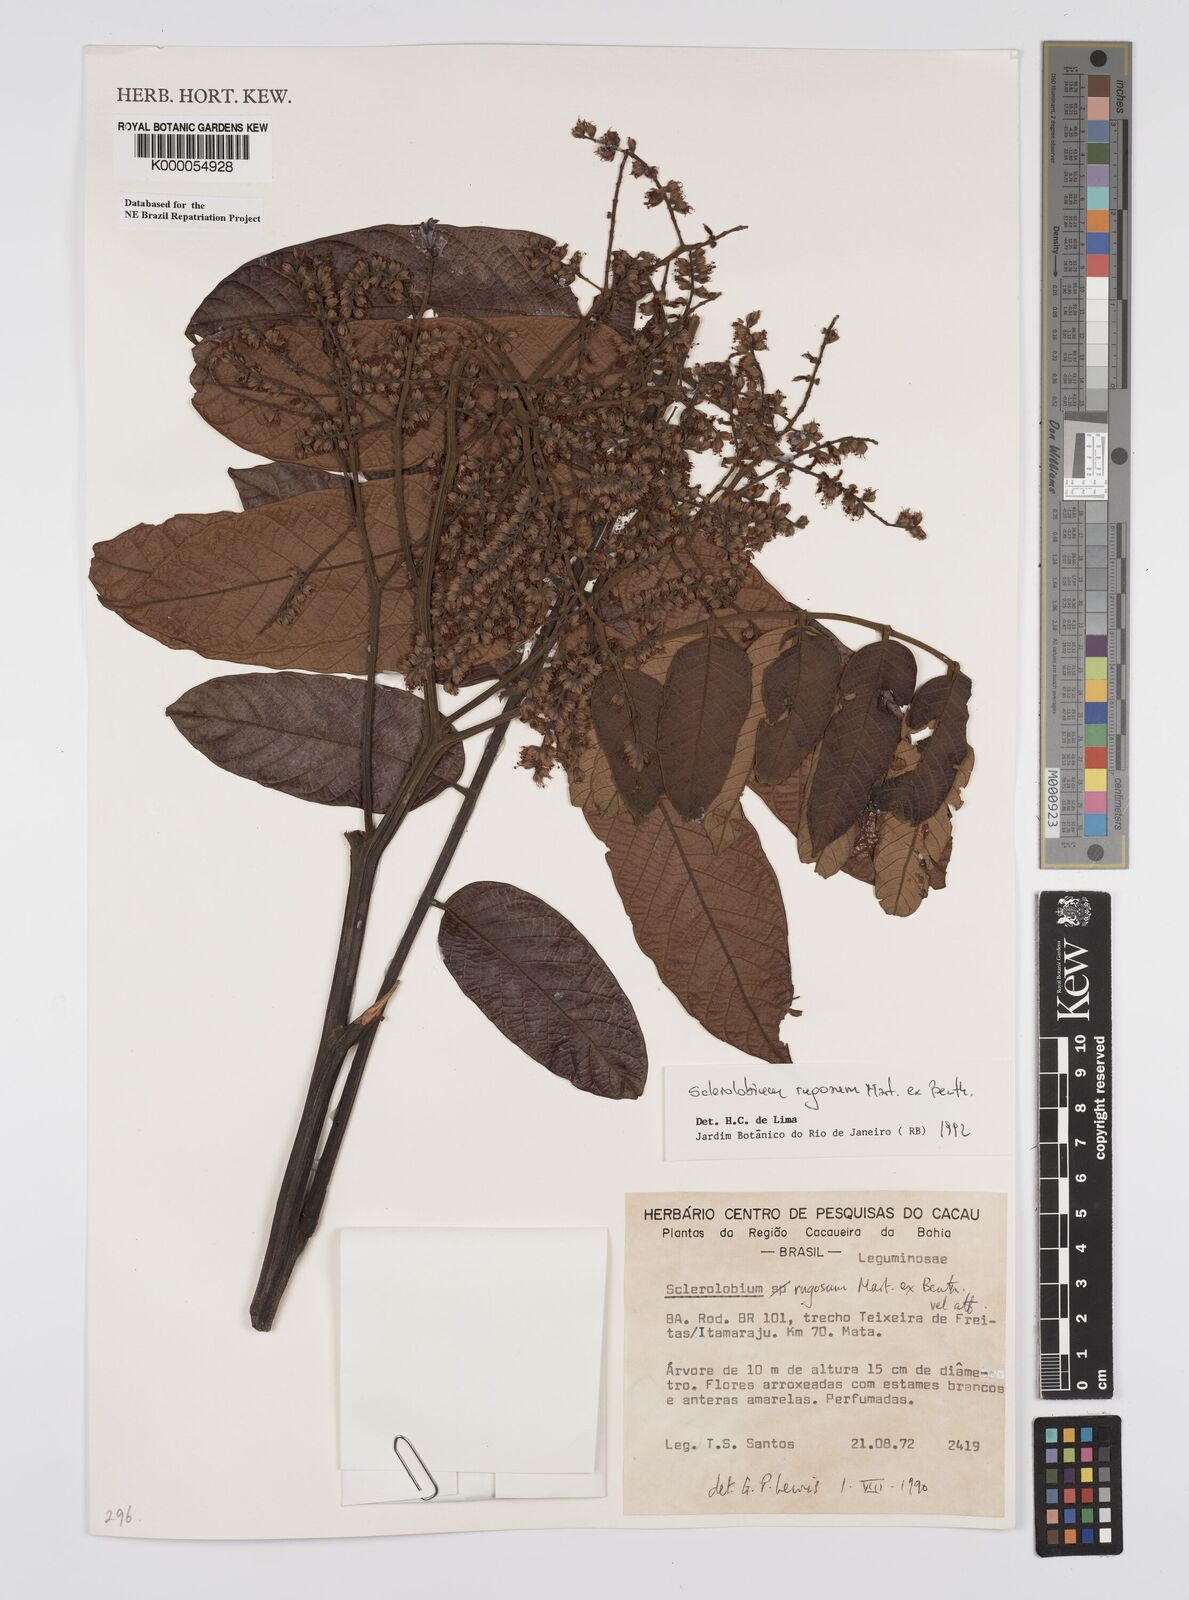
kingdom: Plantae
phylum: Tracheophyta
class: Magnoliopsida
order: Fabales
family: Fabaceae
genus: Tachigali
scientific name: Tachigali rugosa
